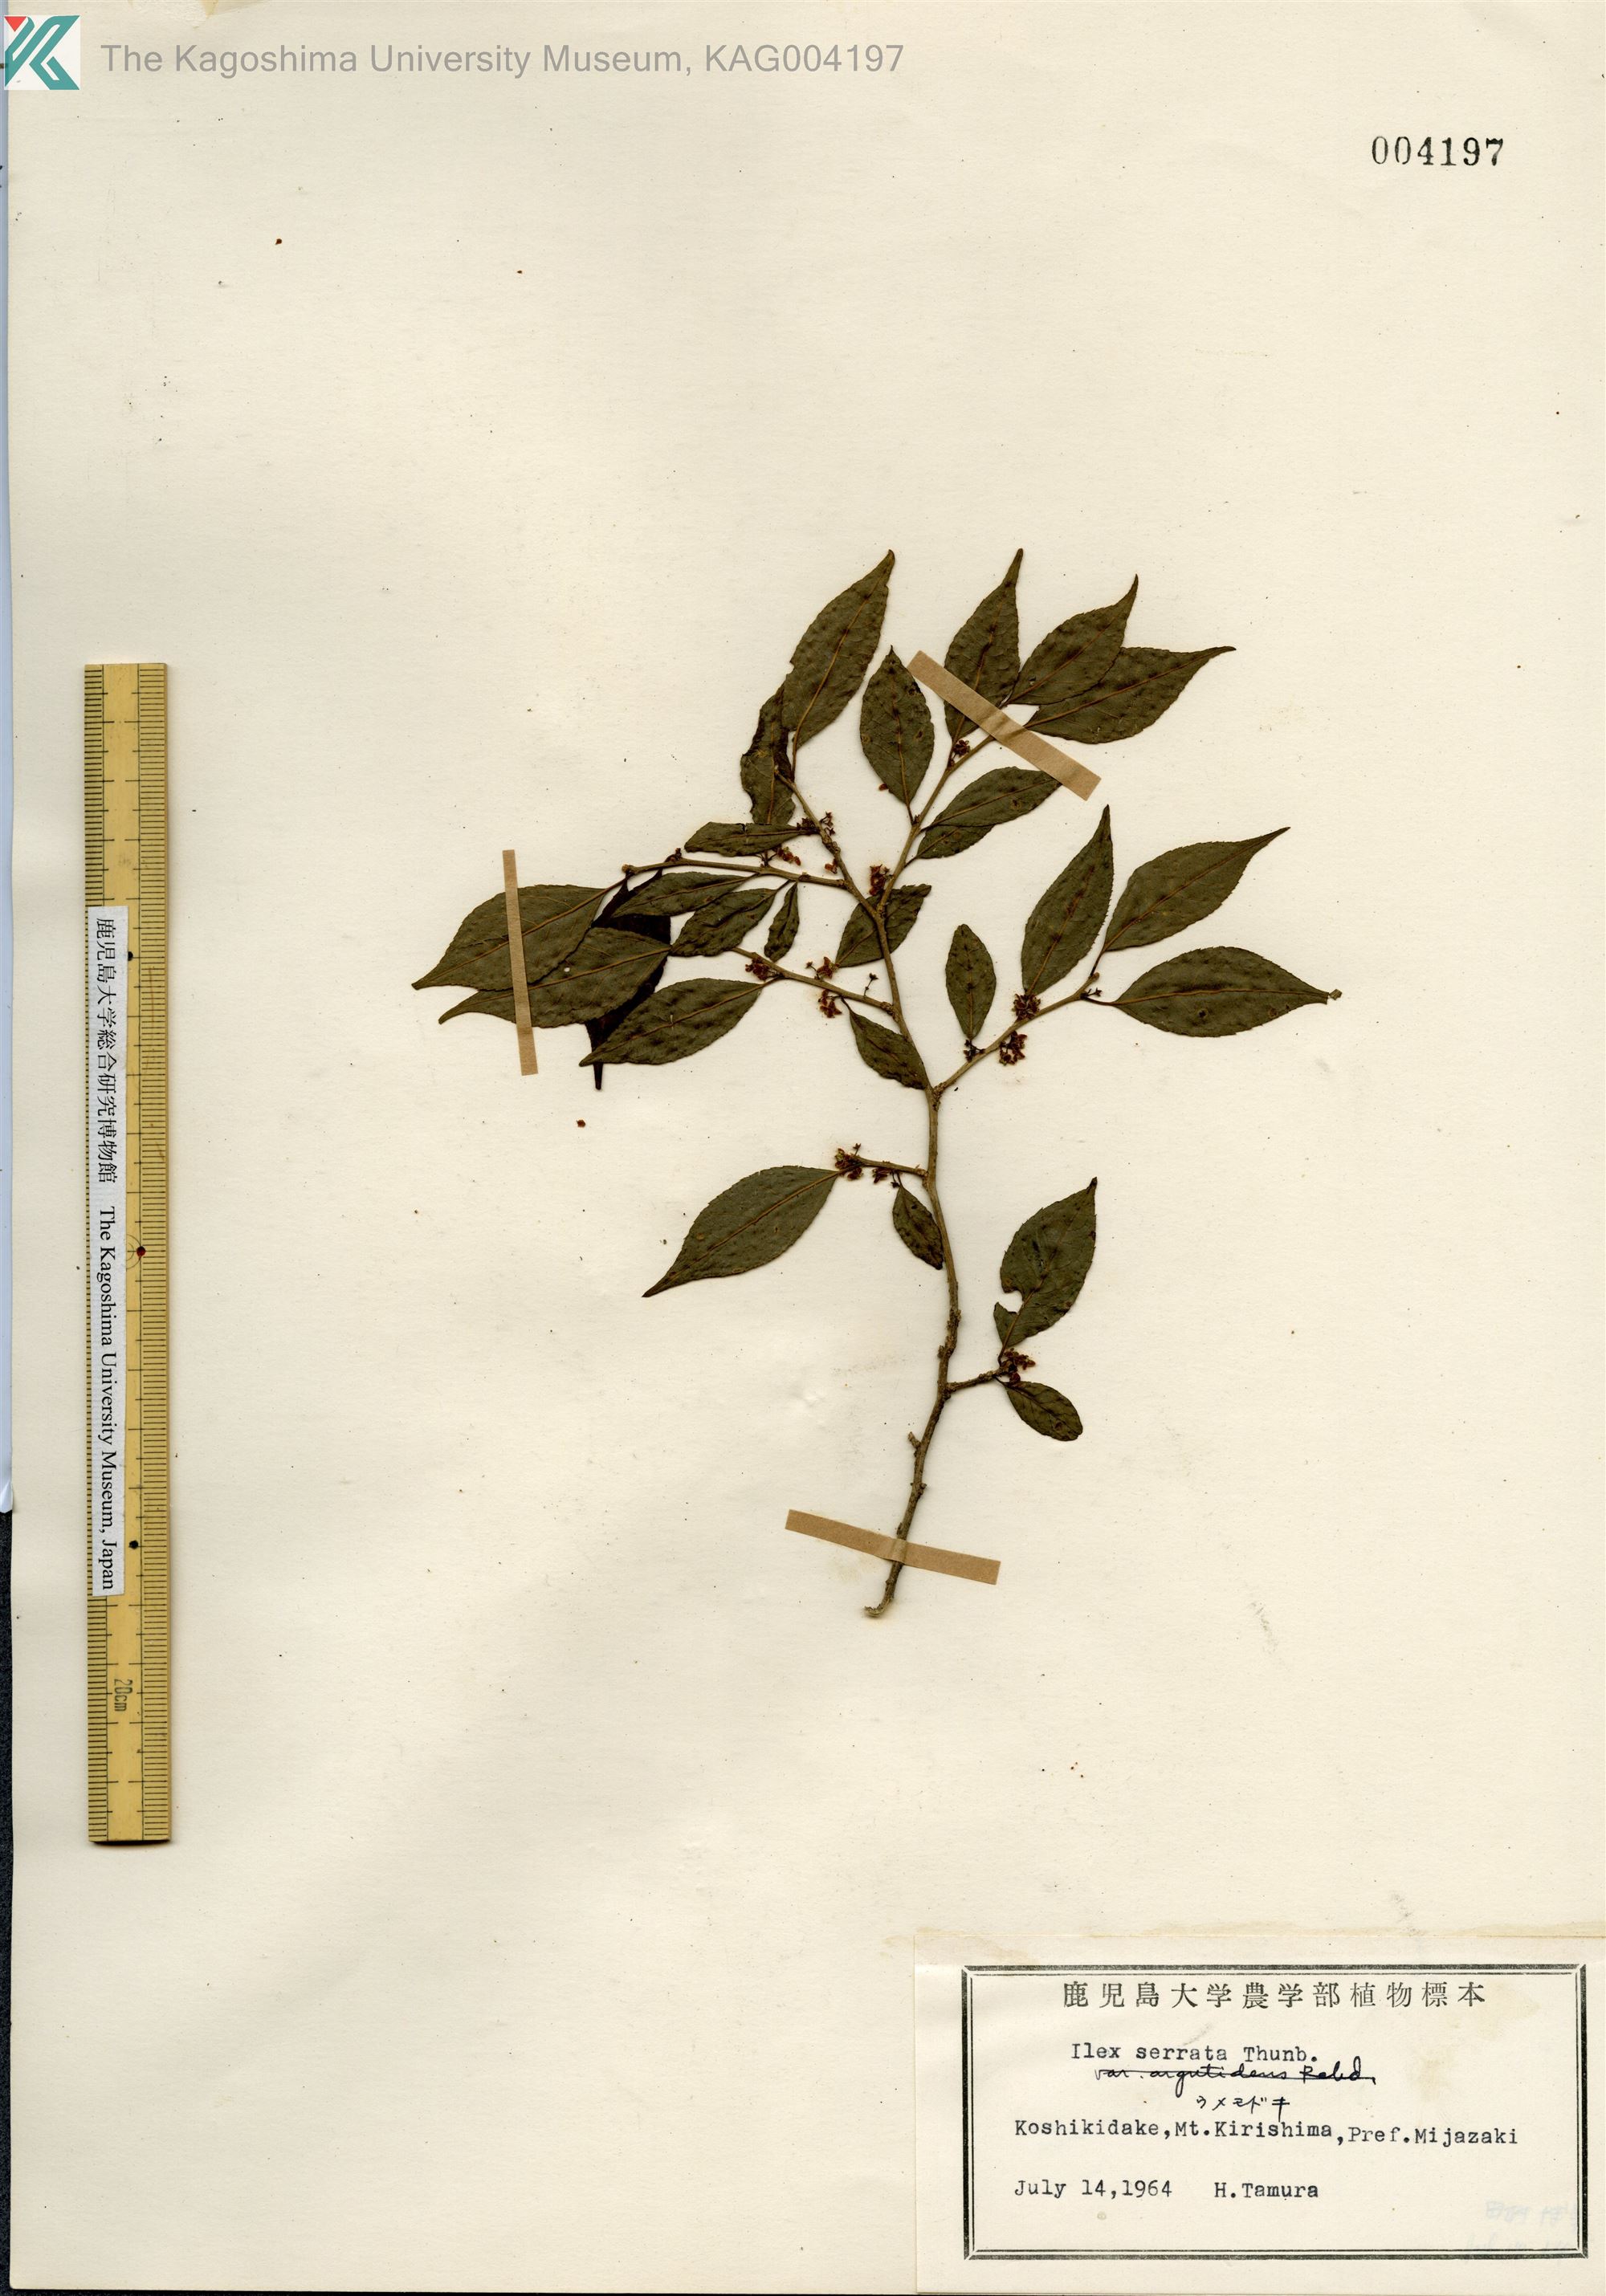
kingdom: Plantae
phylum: Tracheophyta
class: Magnoliopsida
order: Aquifoliales
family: Aquifoliaceae
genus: Ilex
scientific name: Ilex serrata
